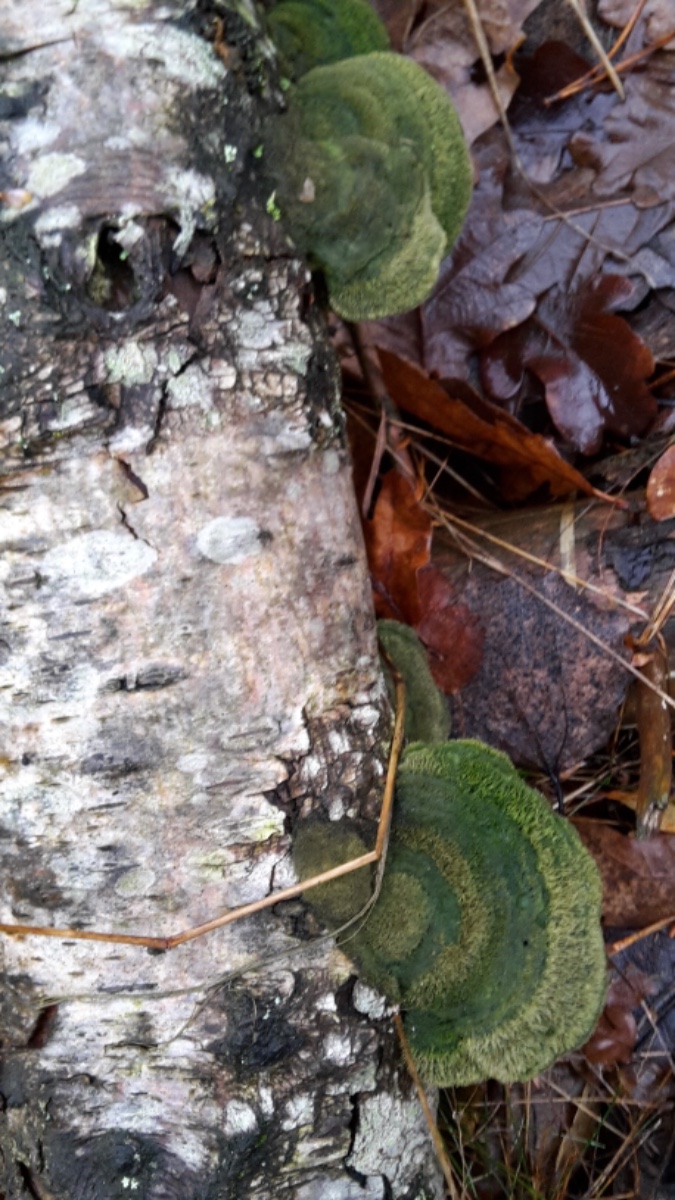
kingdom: Fungi
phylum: Basidiomycota
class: Agaricomycetes
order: Polyporales
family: Polyporaceae
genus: Trametes
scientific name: Trametes hirsuta
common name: håret læderporesvamp
